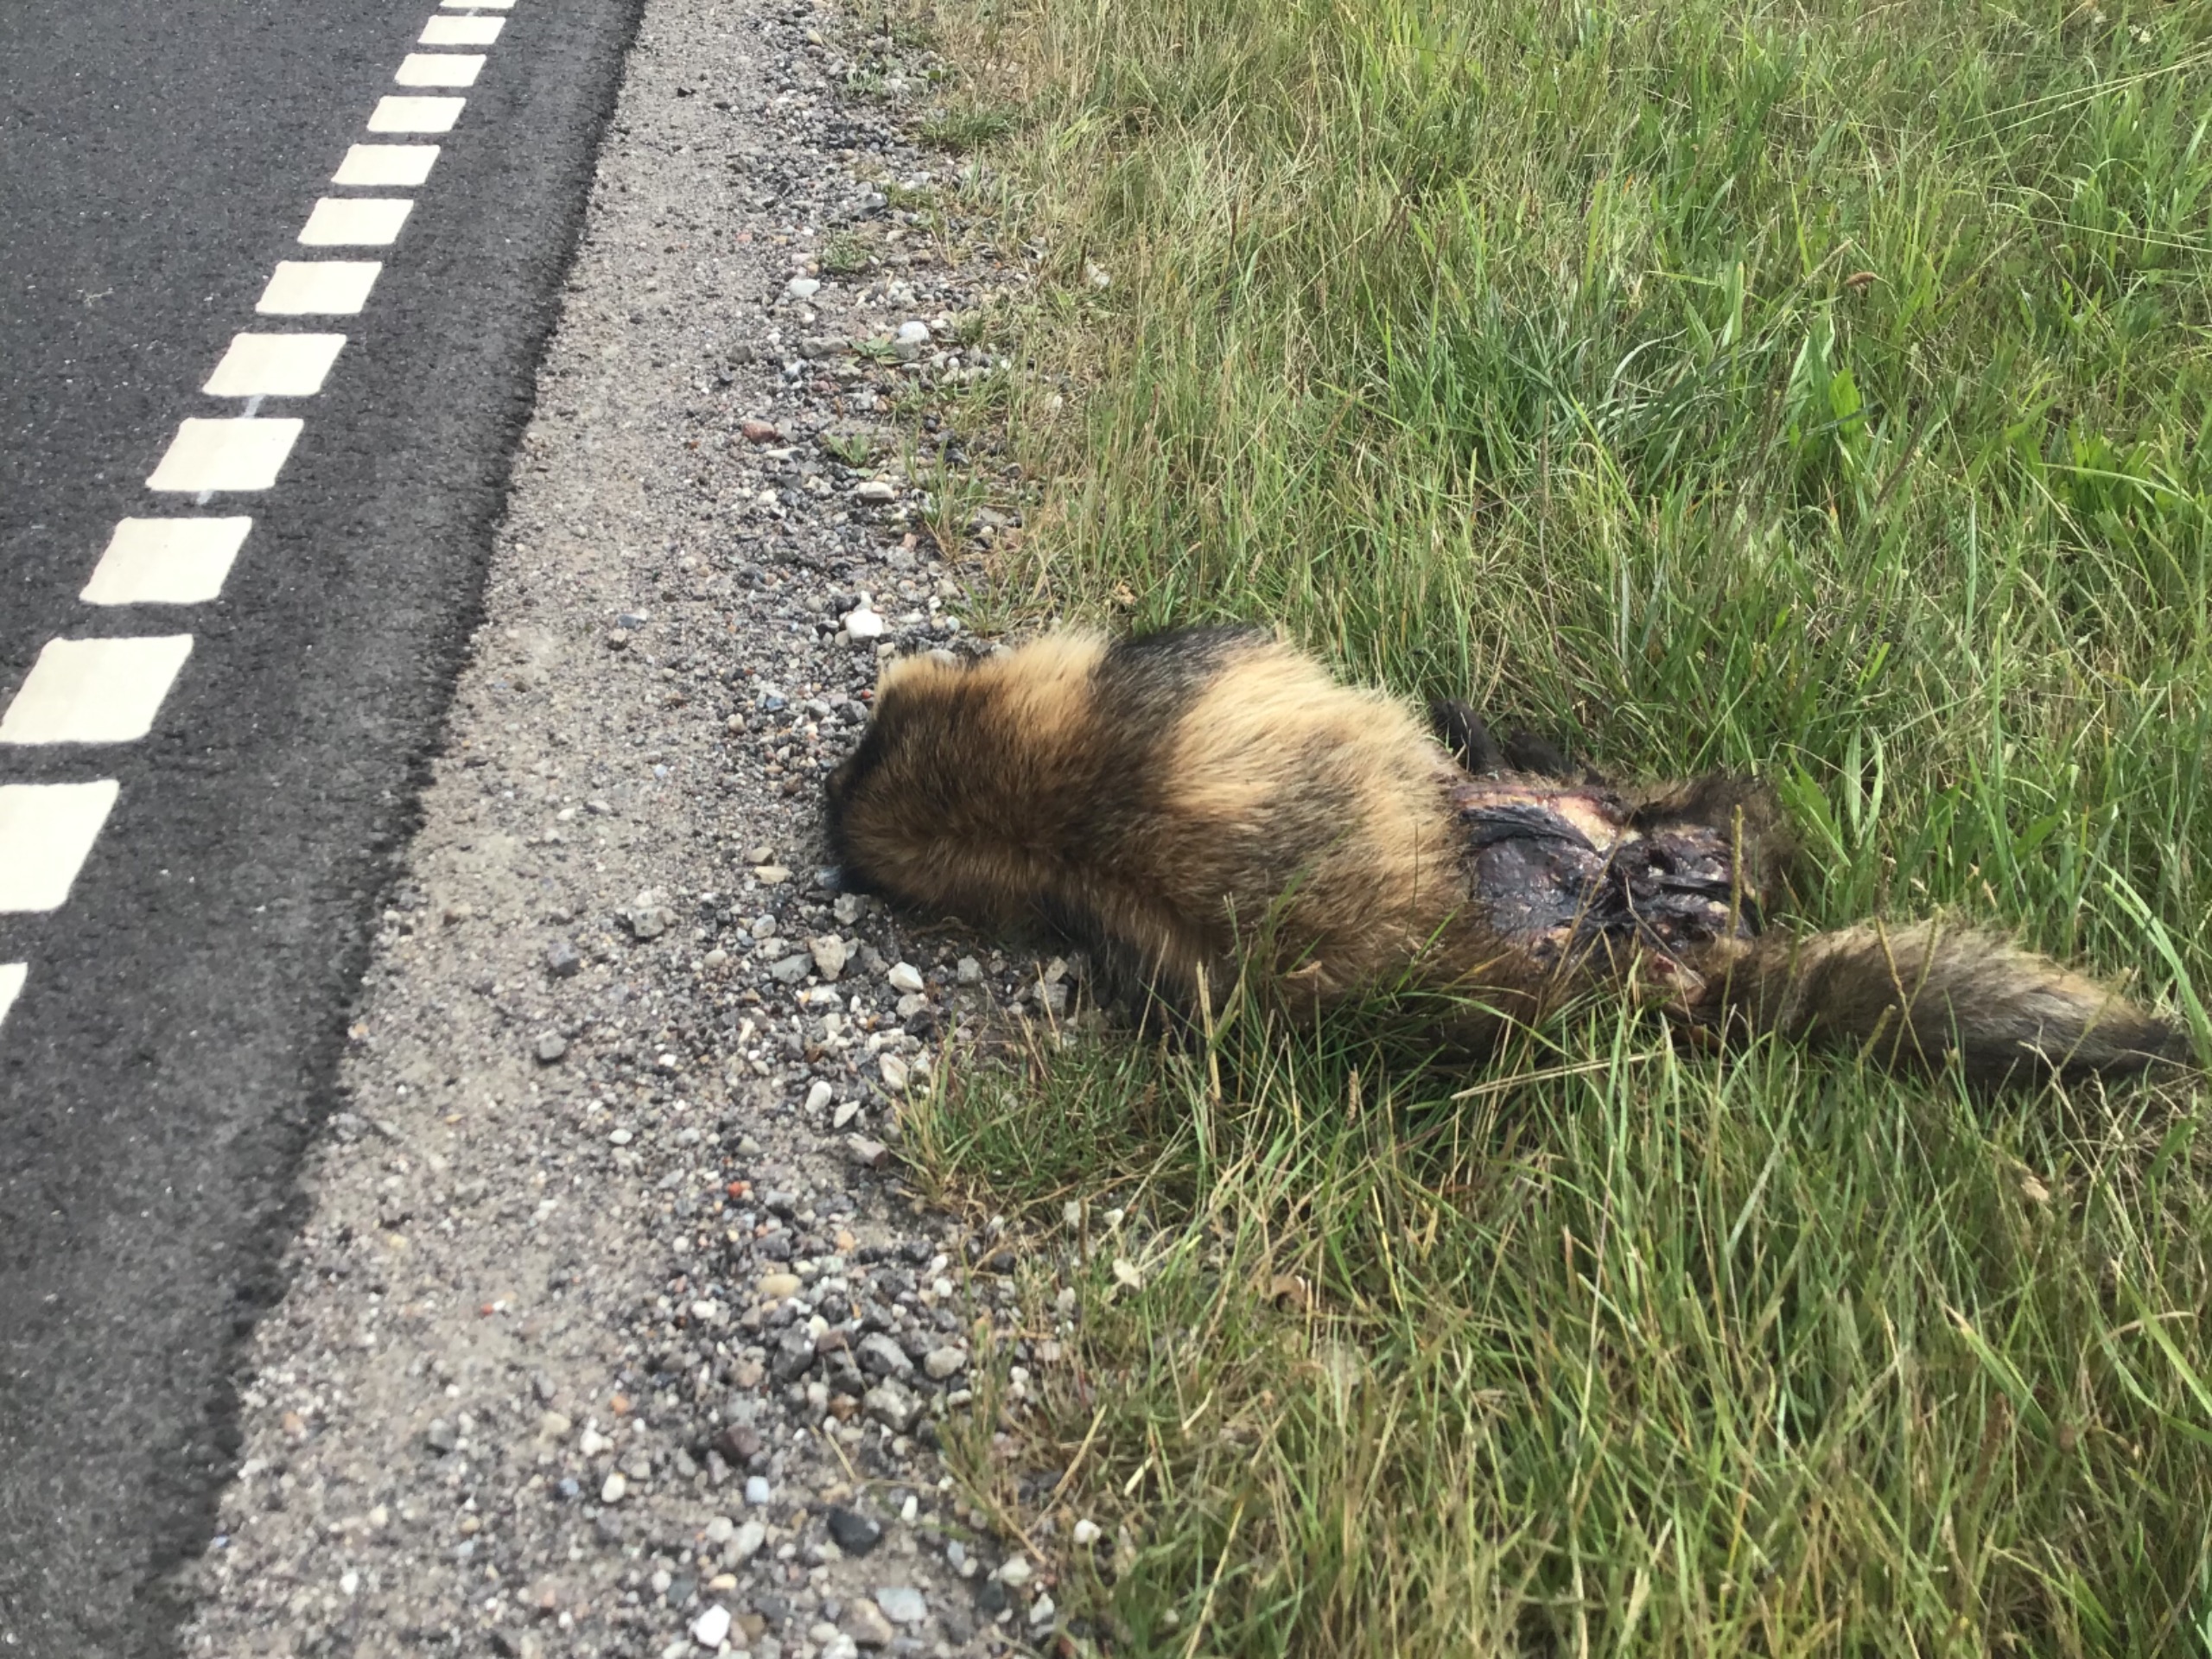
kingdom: Animalia
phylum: Chordata
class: Mammalia
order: Carnivora
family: Canidae
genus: Nyctereutes
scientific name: Nyctereutes procyonoides
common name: Mårhund
